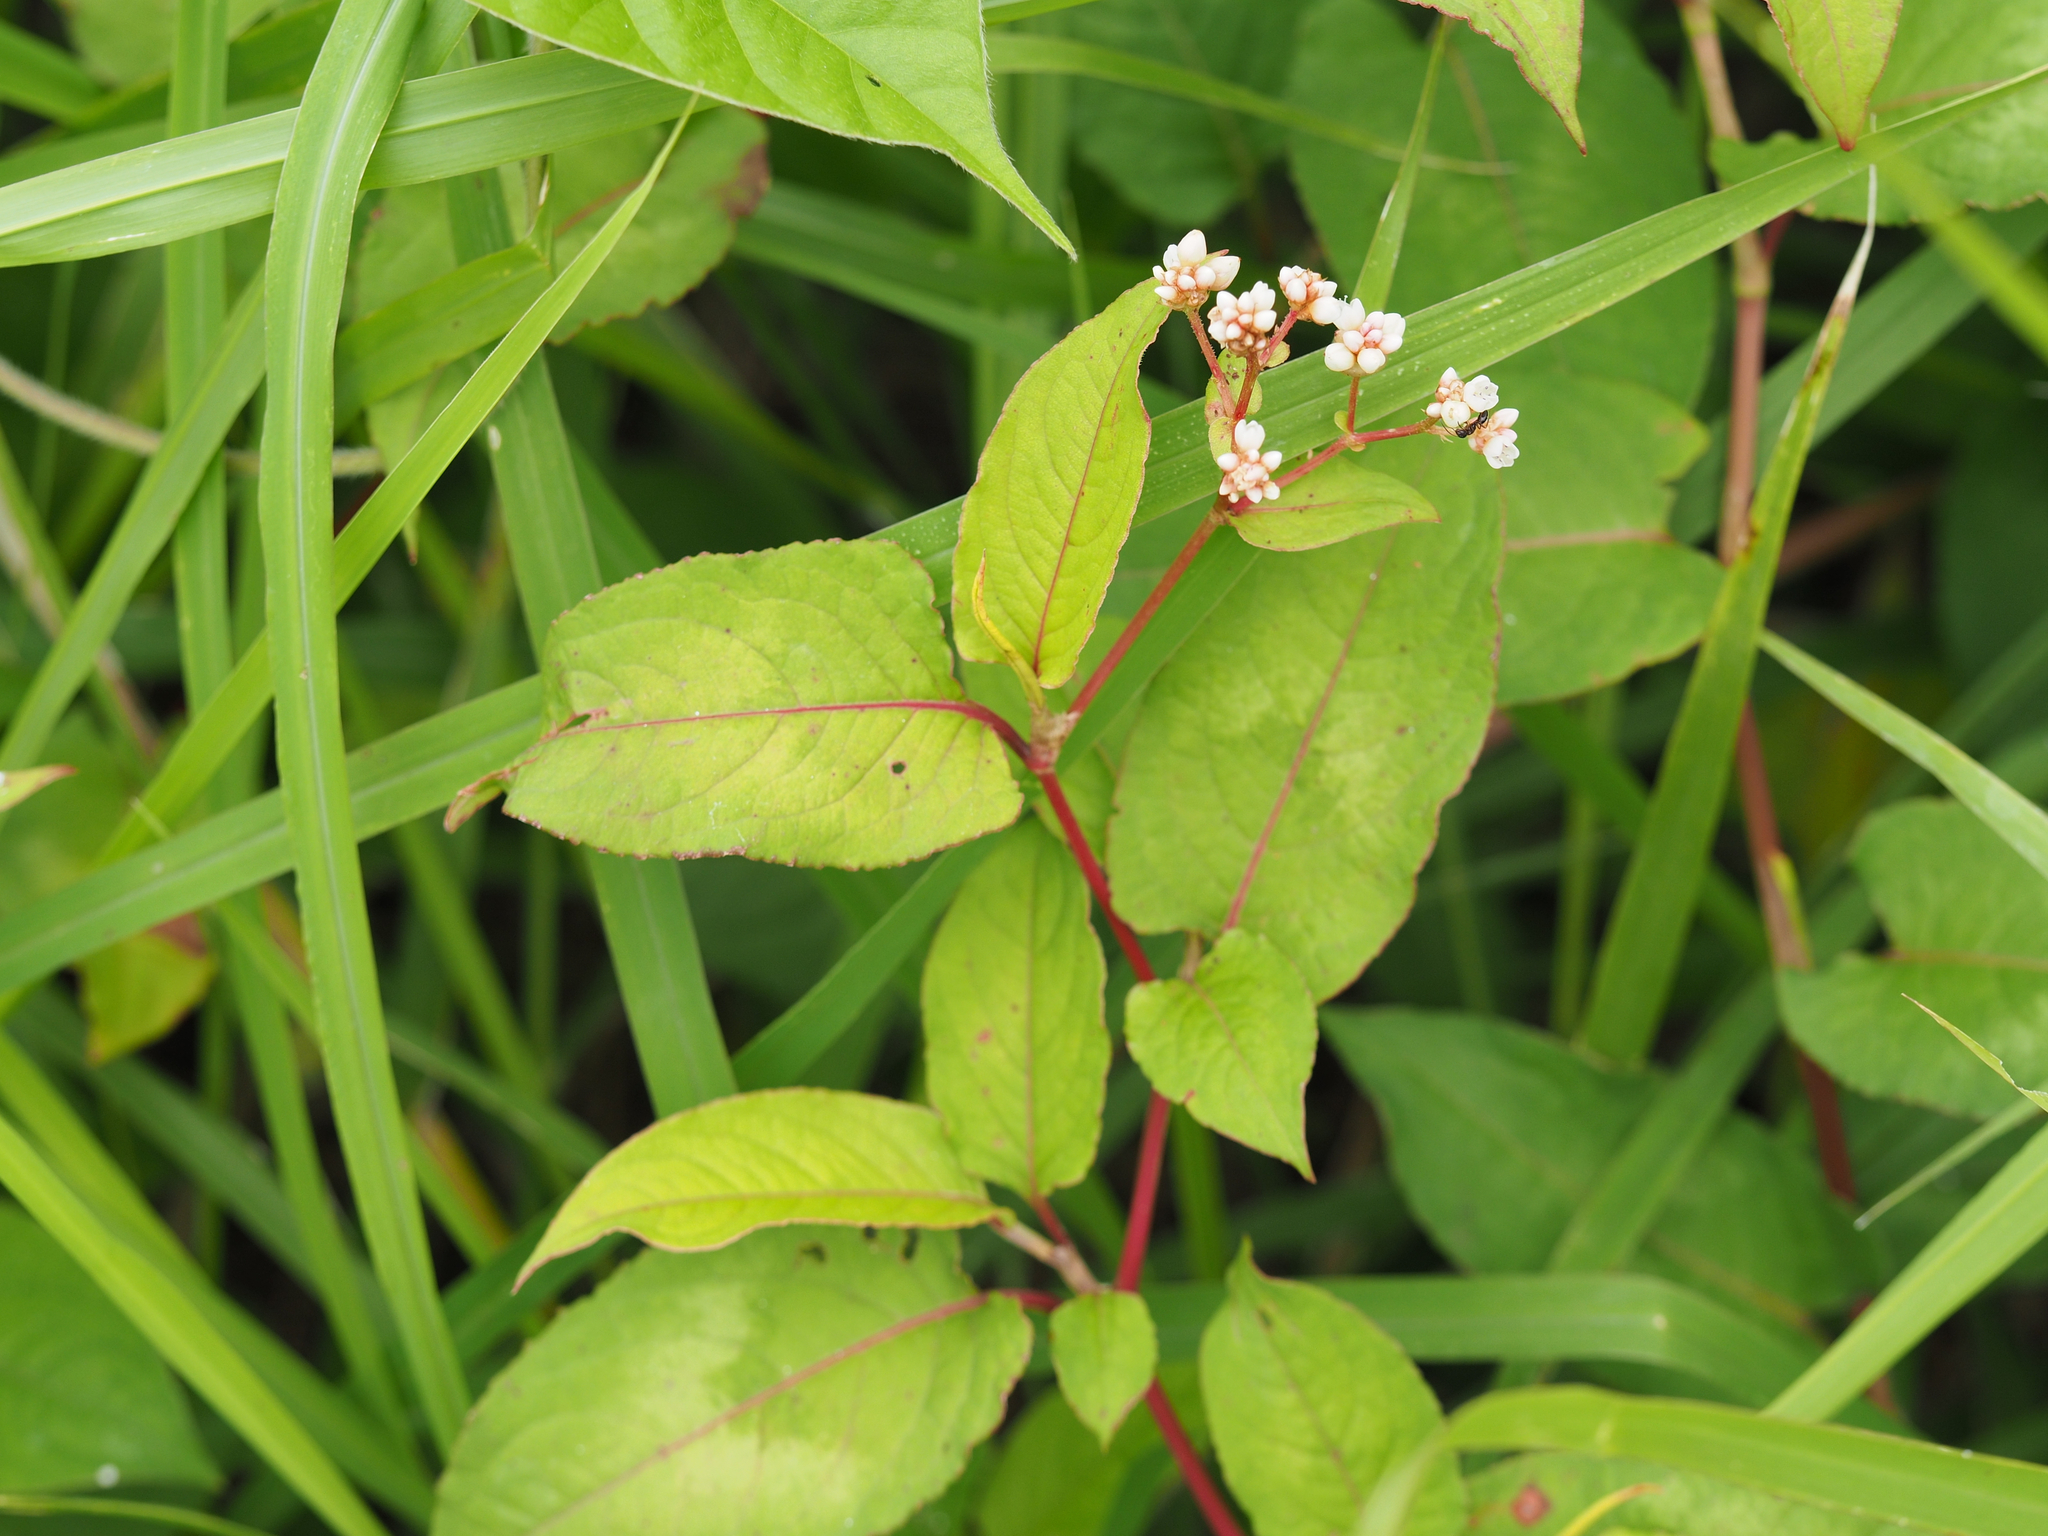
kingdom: Plantae
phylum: Tracheophyta
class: Magnoliopsida
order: Caryophyllales
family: Polygonaceae
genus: Persicaria
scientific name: Persicaria chinensis
